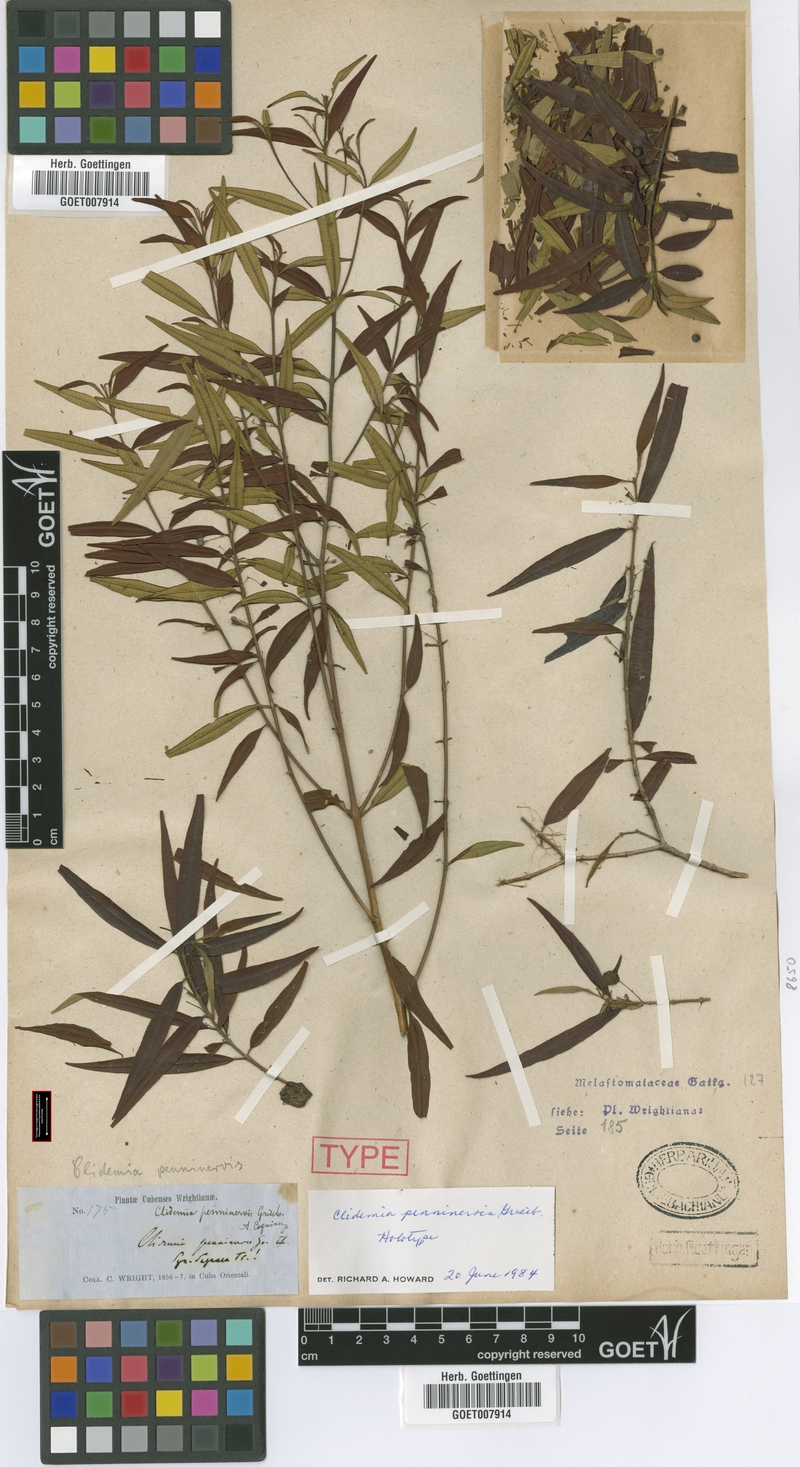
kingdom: Plantae
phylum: Tracheophyta
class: Magnoliopsida
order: Myrtales
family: Melastomataceae
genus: Miconia
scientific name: Miconia penninervis
